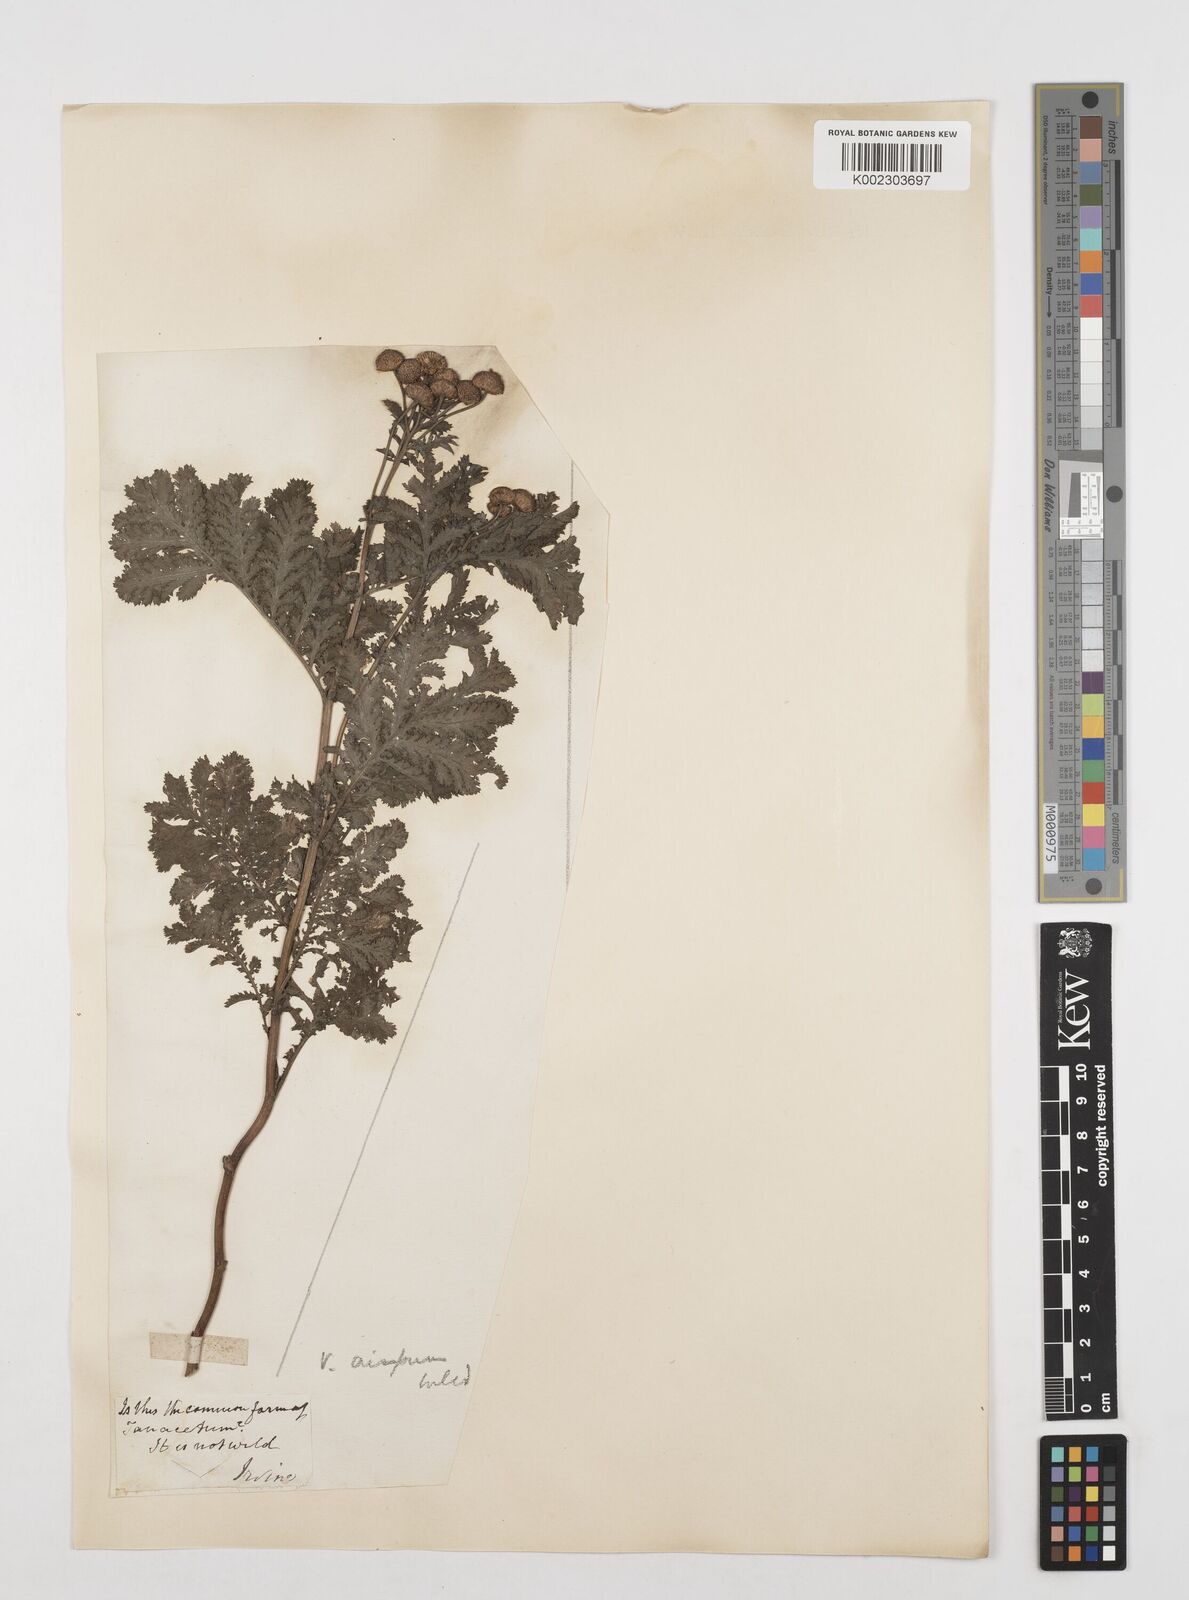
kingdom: Plantae
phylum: Tracheophyta
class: Magnoliopsida
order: Asterales
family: Asteraceae
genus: Tanacetum
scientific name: Tanacetum vulgare
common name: Common tansy
